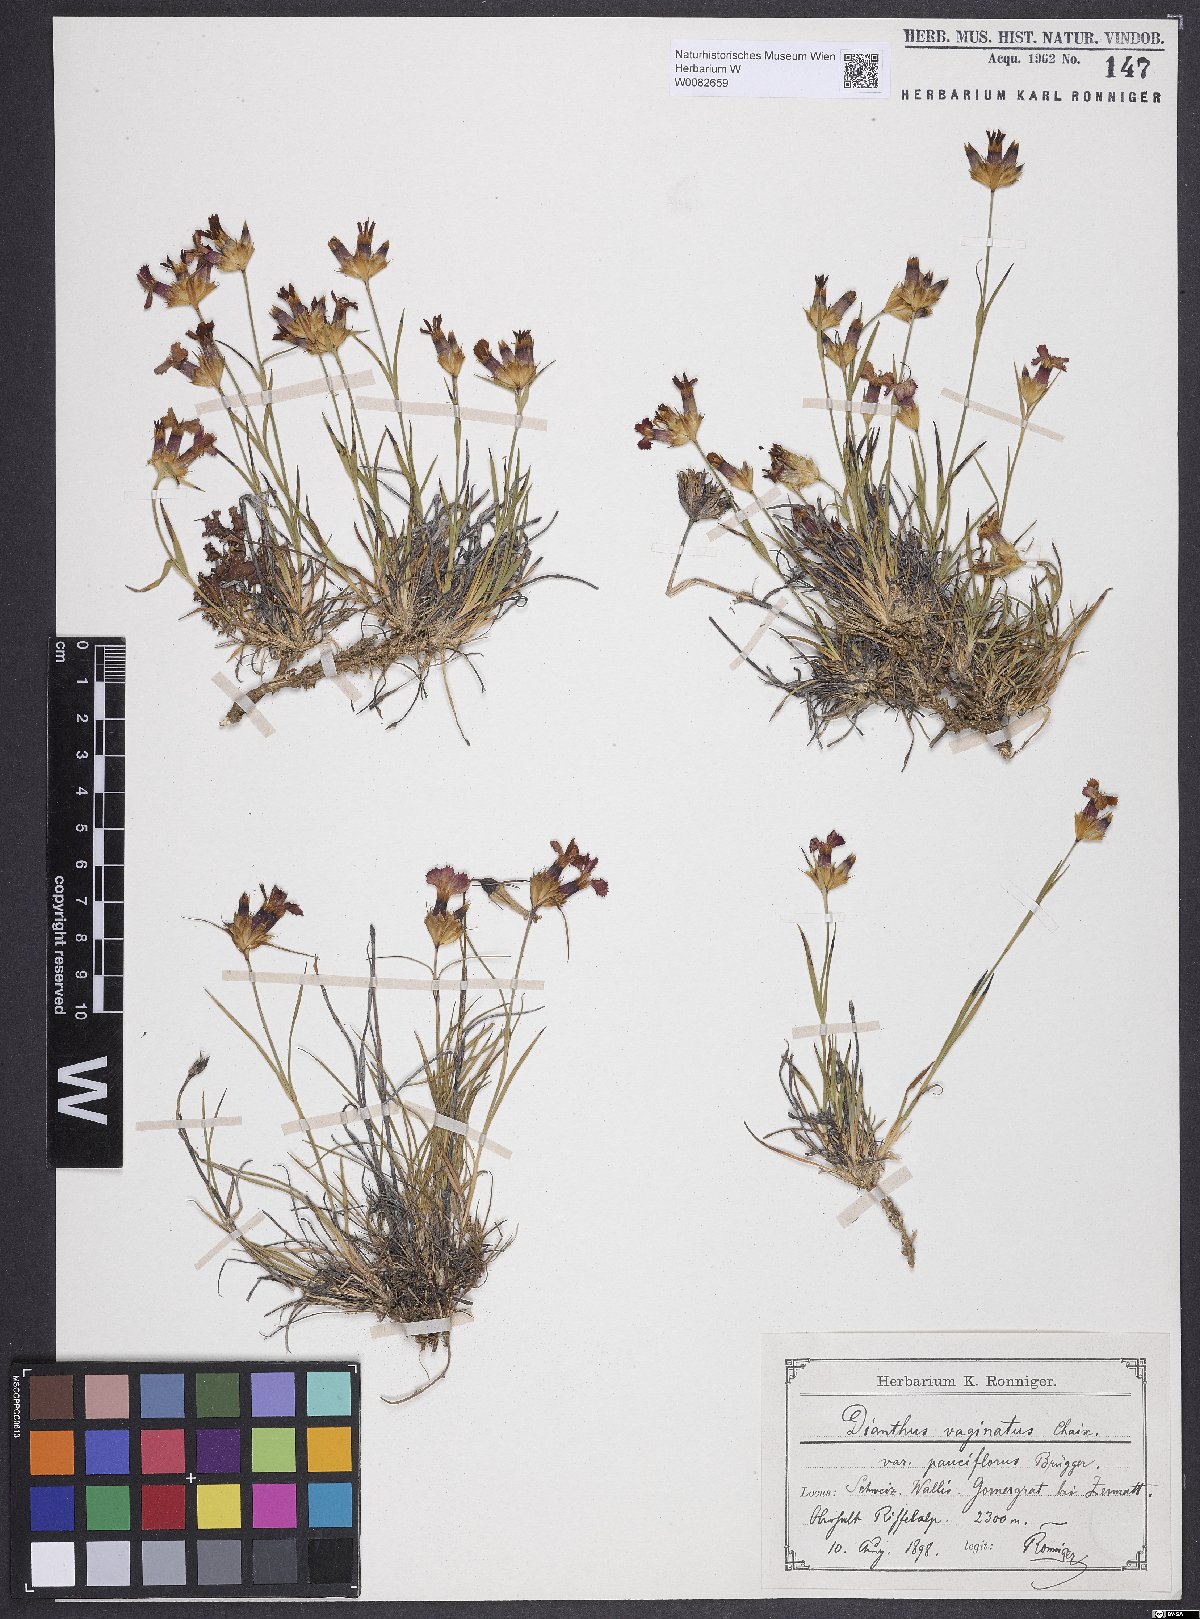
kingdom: Plantae
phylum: Tracheophyta
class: Magnoliopsida
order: Caryophyllales
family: Caryophyllaceae
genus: Dianthus
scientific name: Dianthus carthusianorum
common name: Carthusian pink
